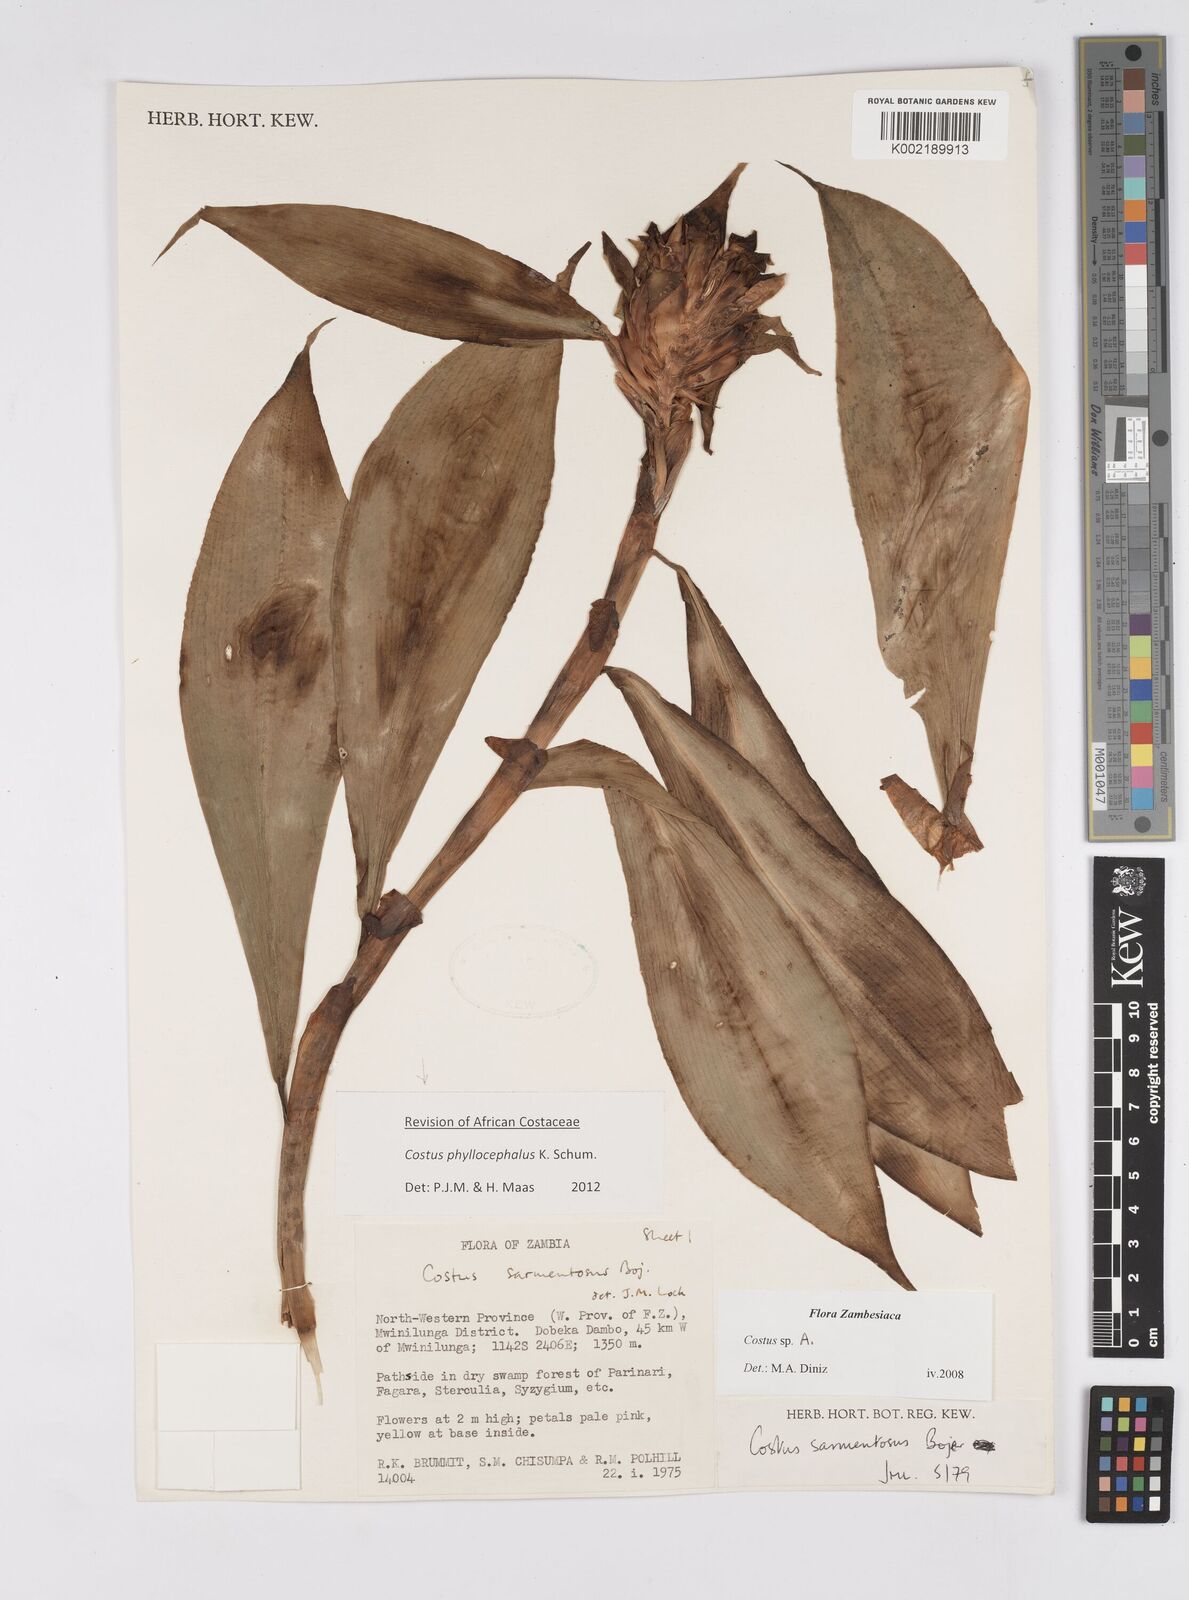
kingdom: Plantae
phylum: Tracheophyta
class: Liliopsida
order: Zingiberales
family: Costaceae
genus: Costus
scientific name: Costus phyllocephalus
